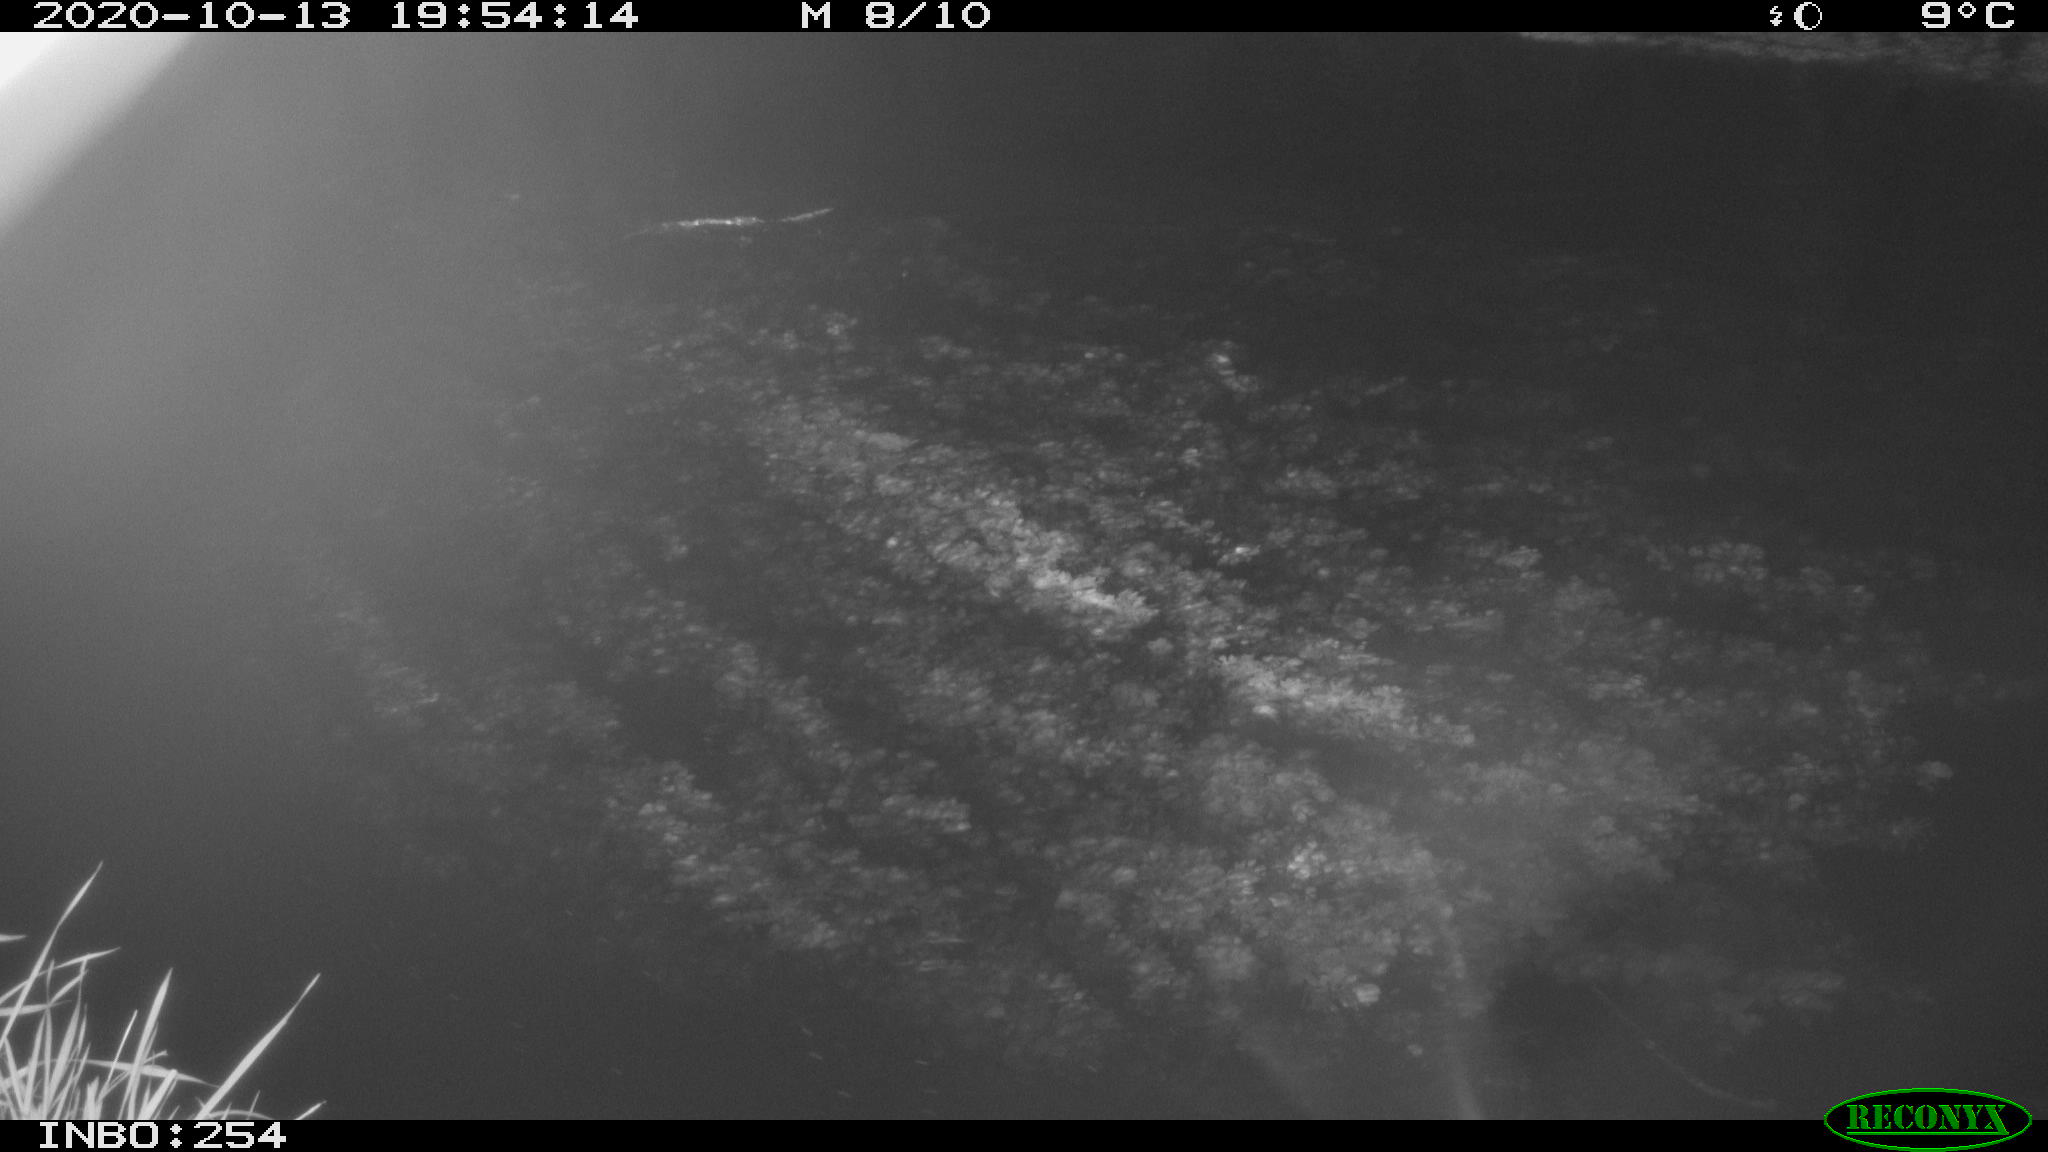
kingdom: Animalia
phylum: Chordata
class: Mammalia
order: Rodentia
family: Muridae
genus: Rattus
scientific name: Rattus norvegicus
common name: Brown rat
